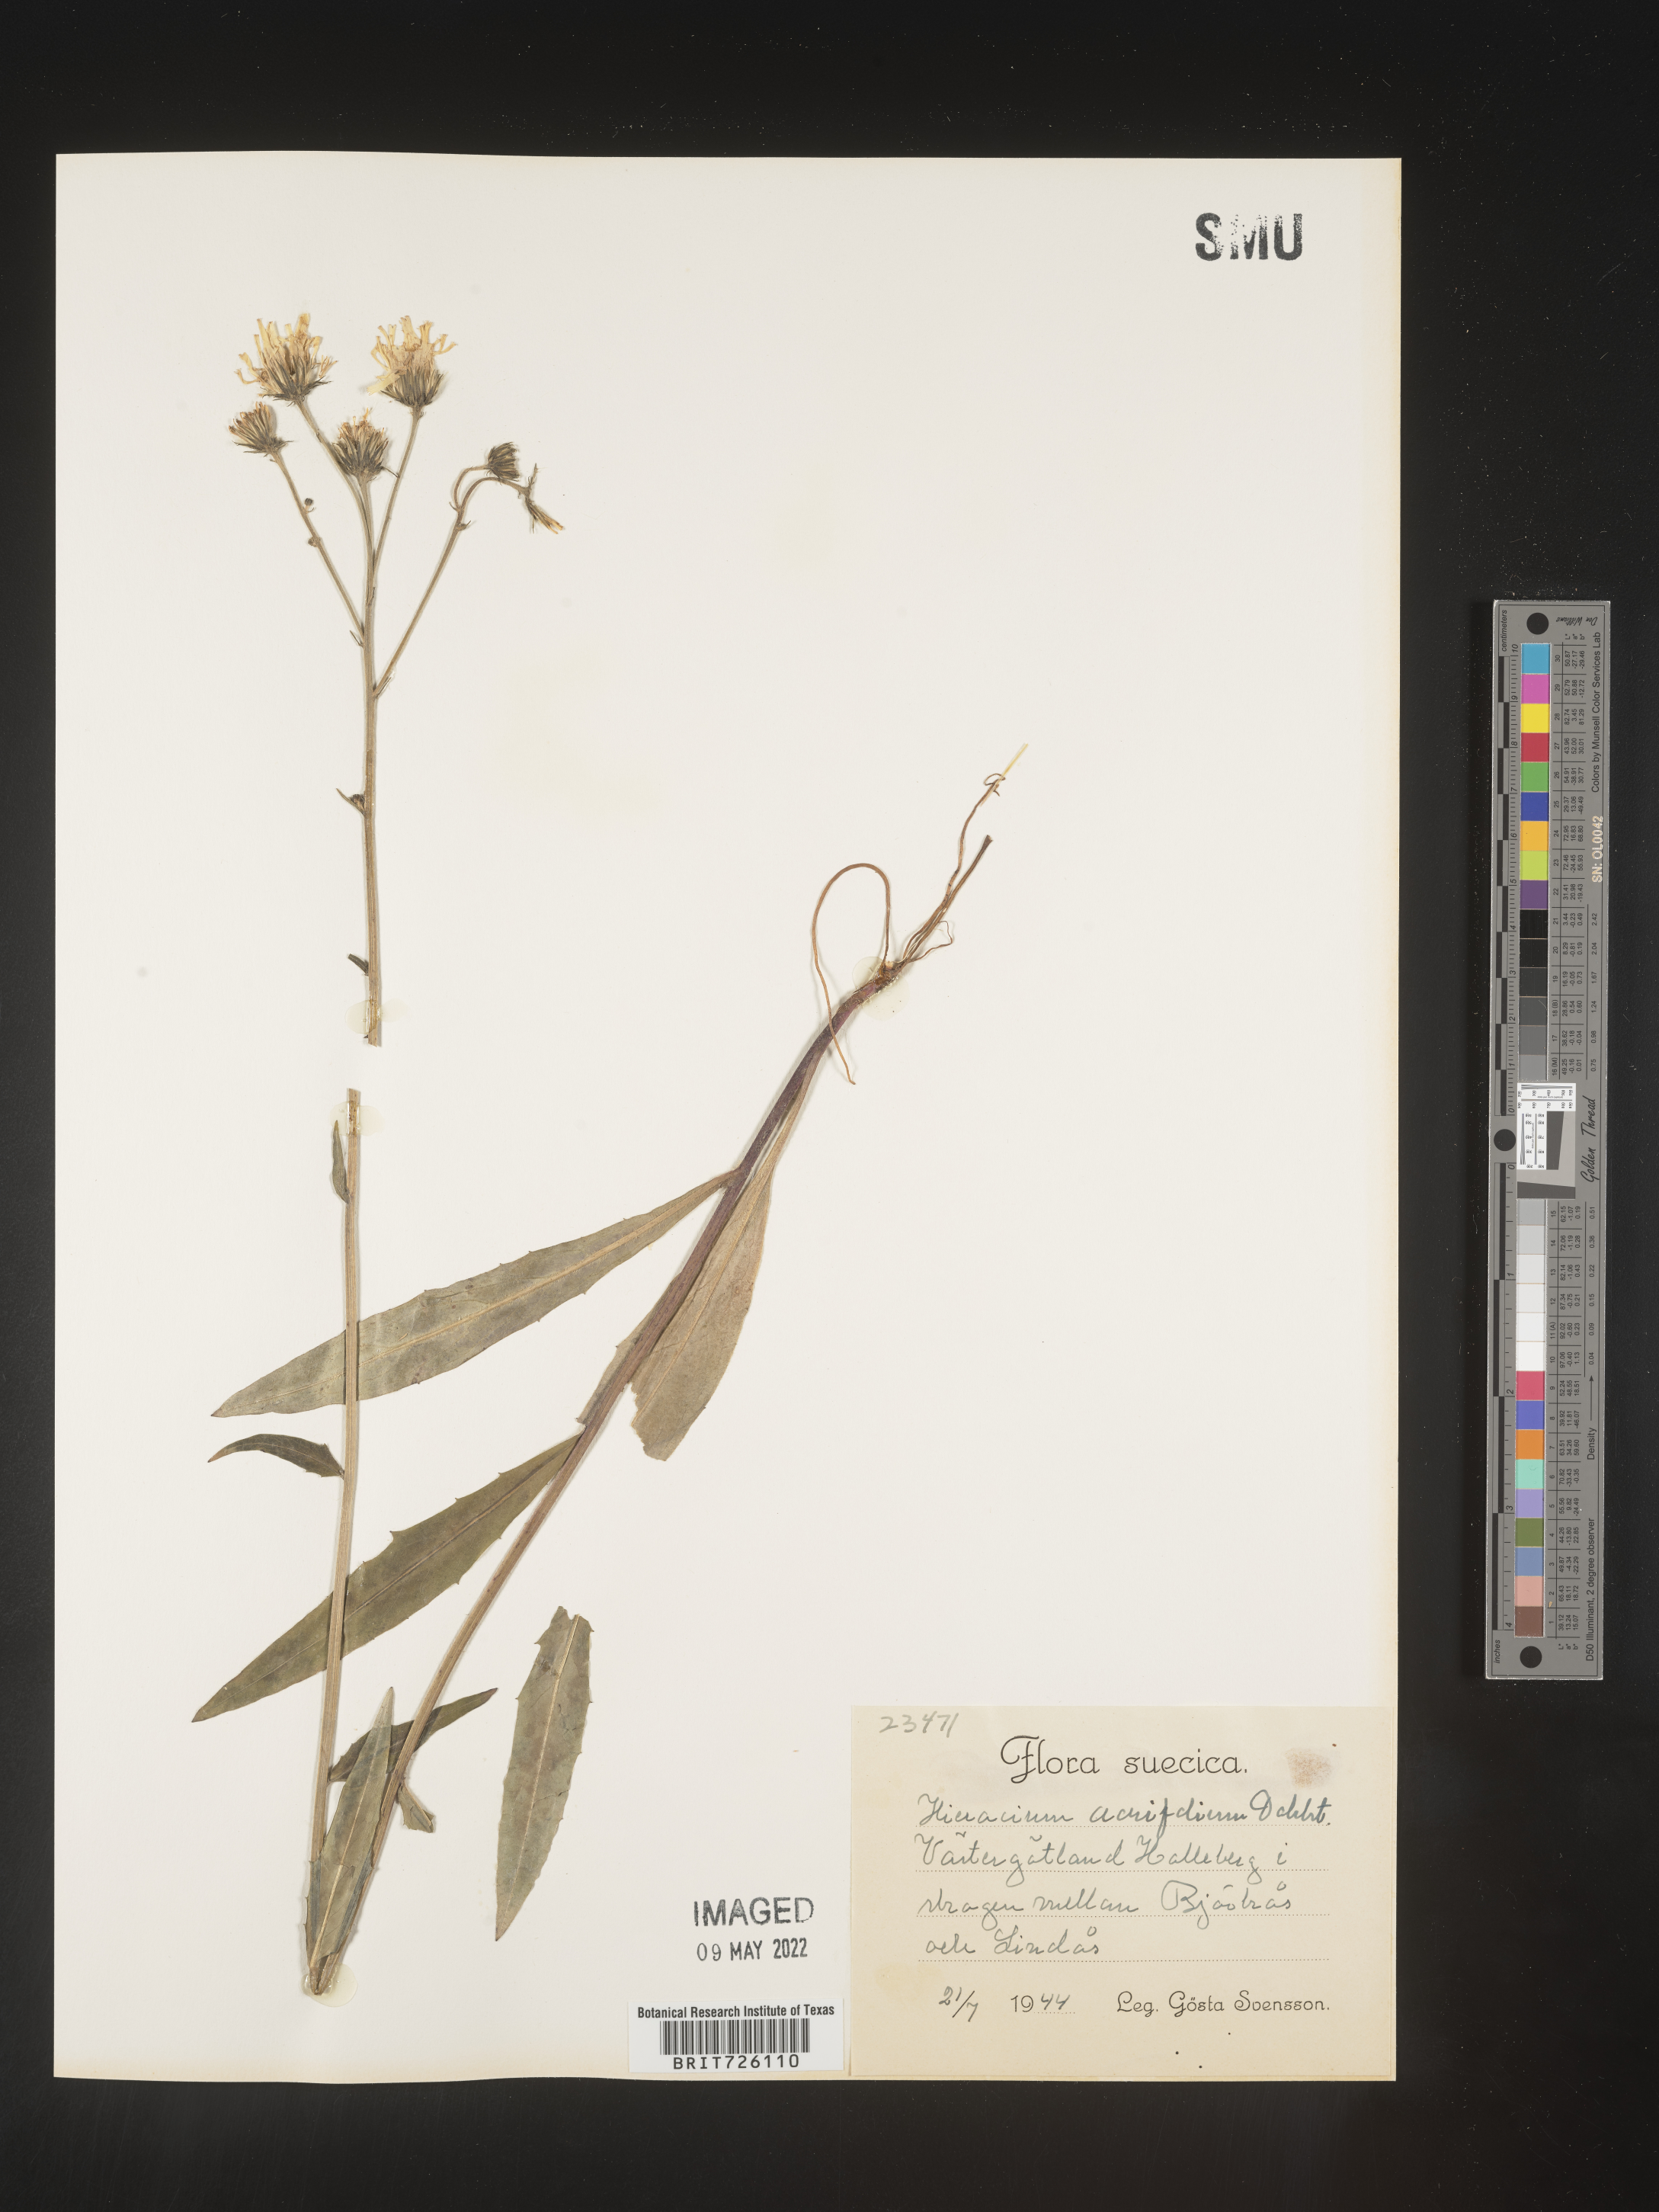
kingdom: Plantae
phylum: Tracheophyta
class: Magnoliopsida
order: Asterales
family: Asteraceae
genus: Hieracium
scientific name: Hieracium
